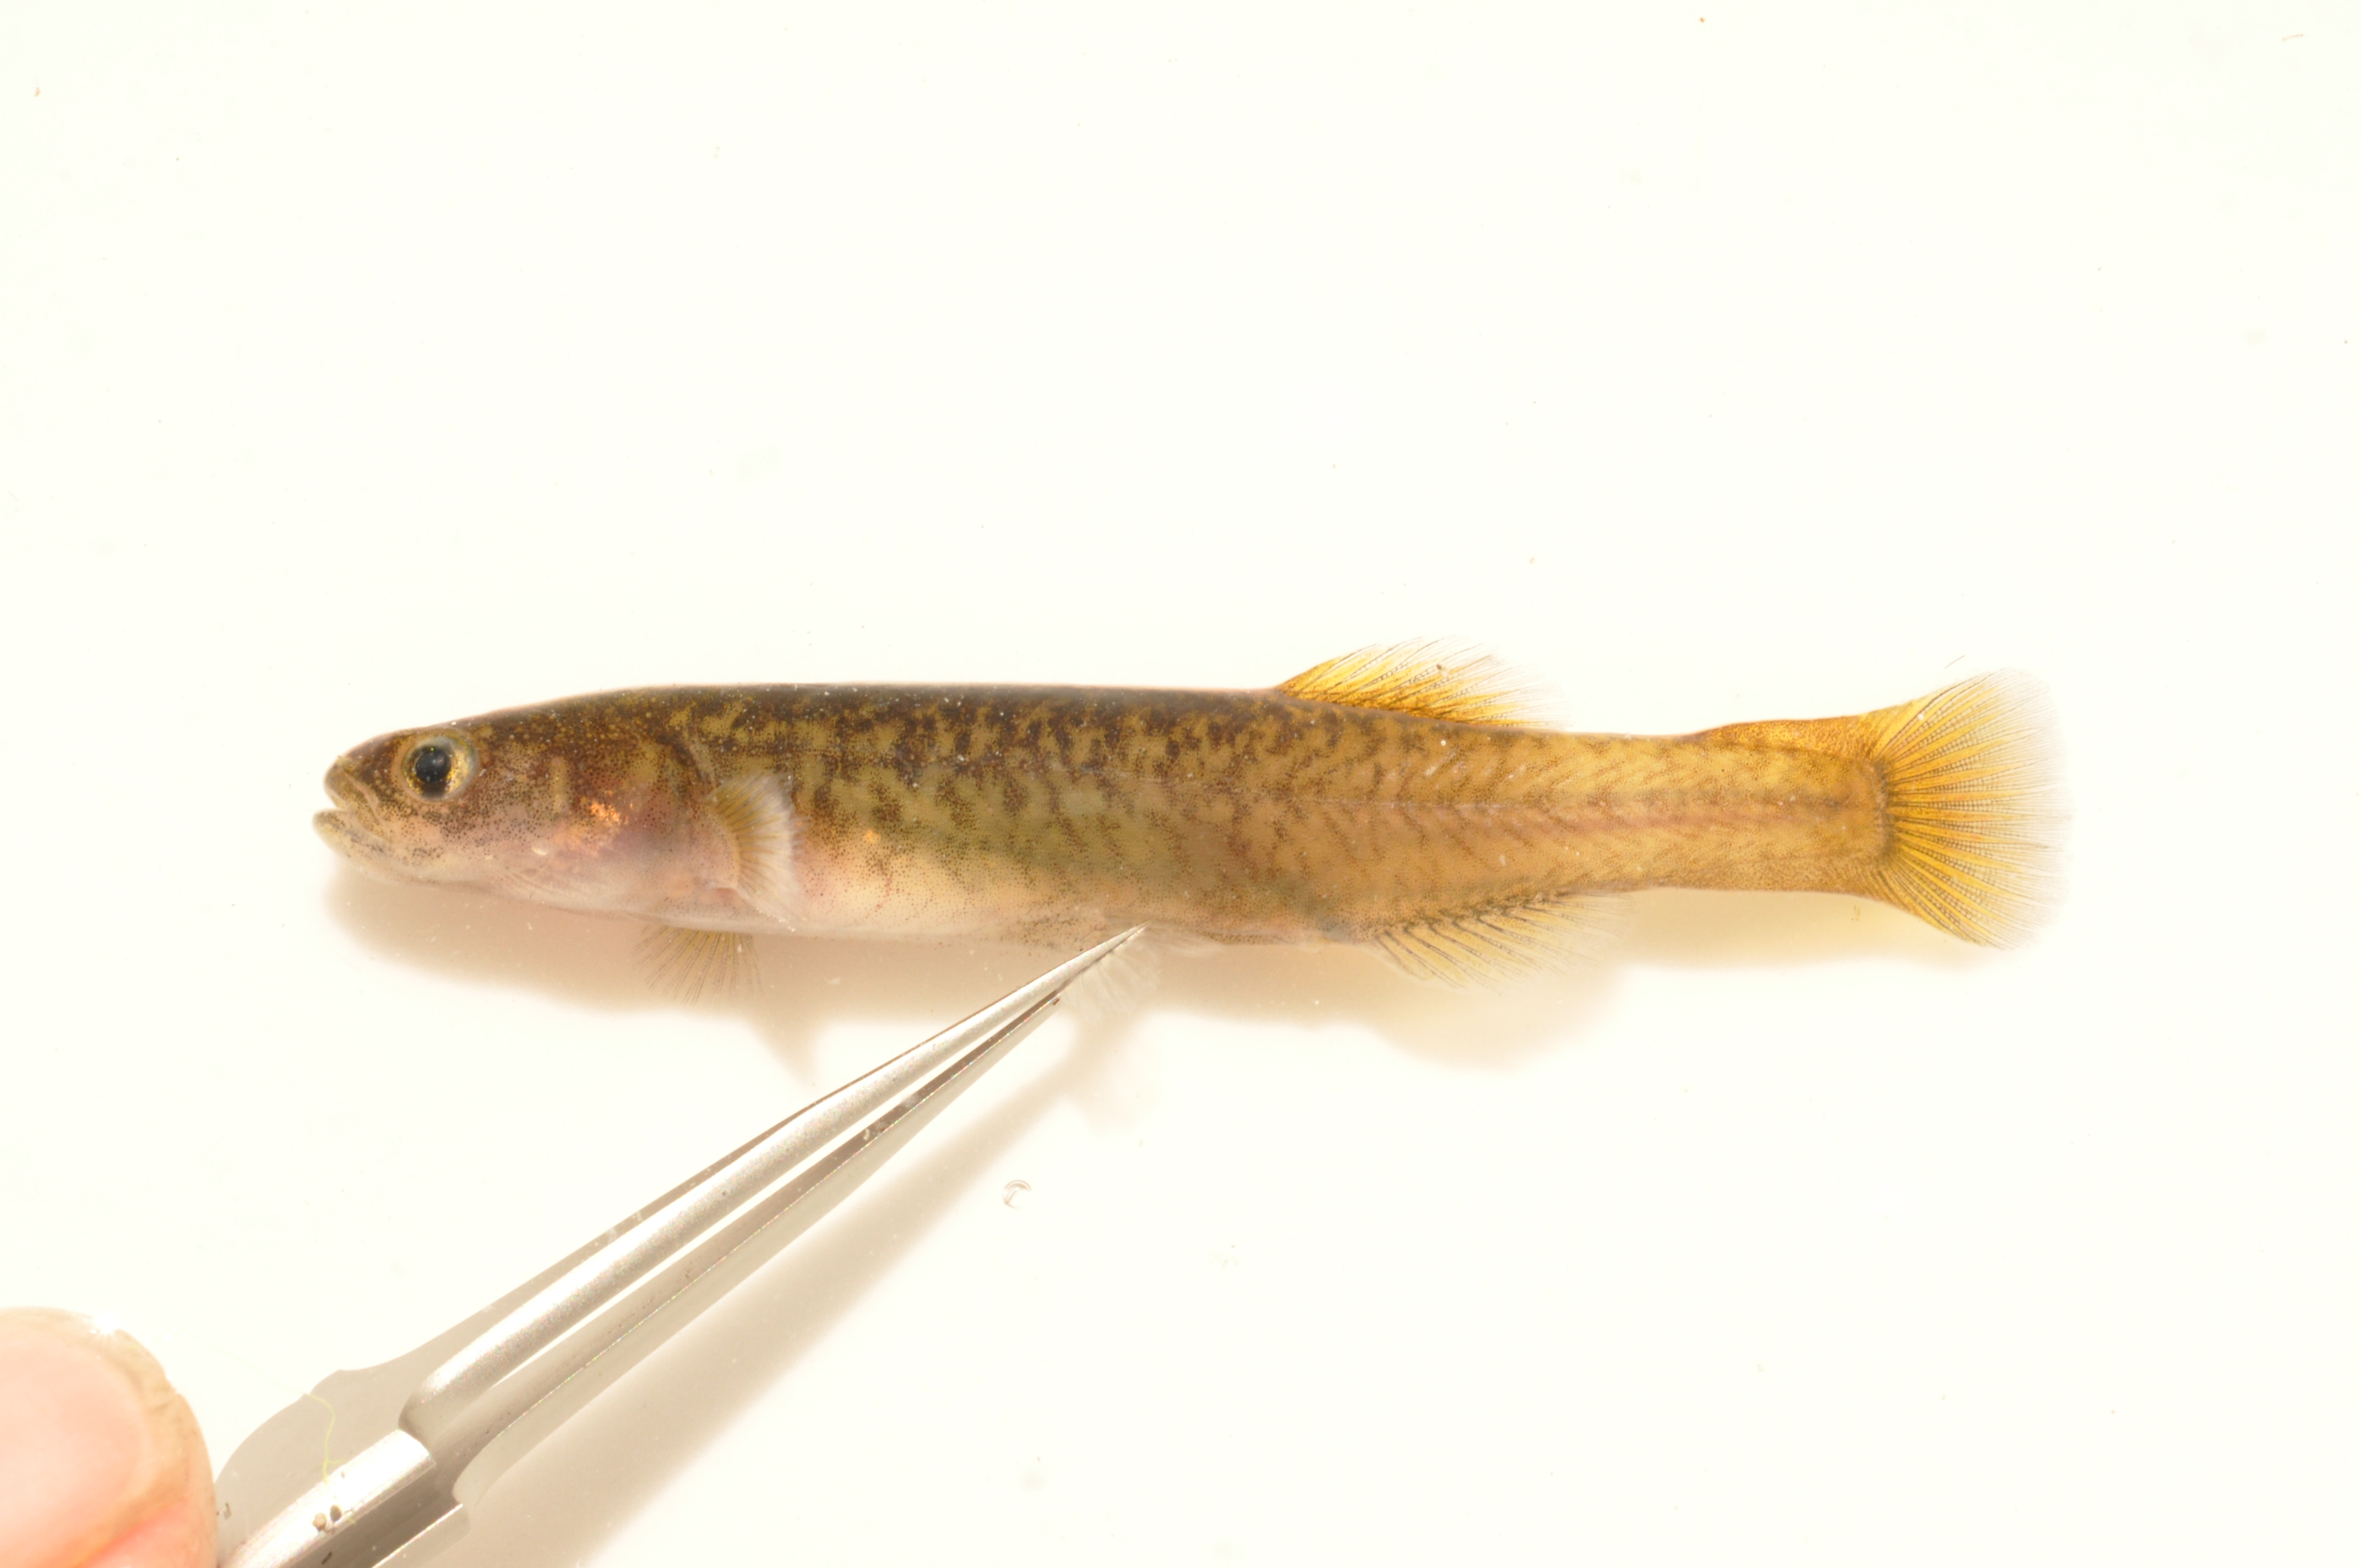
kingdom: Animalia
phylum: Chordata
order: Osmeriformes
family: Galaxiidae
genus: Galaxias
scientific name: Galaxias zebratus
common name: Cape galaxias
